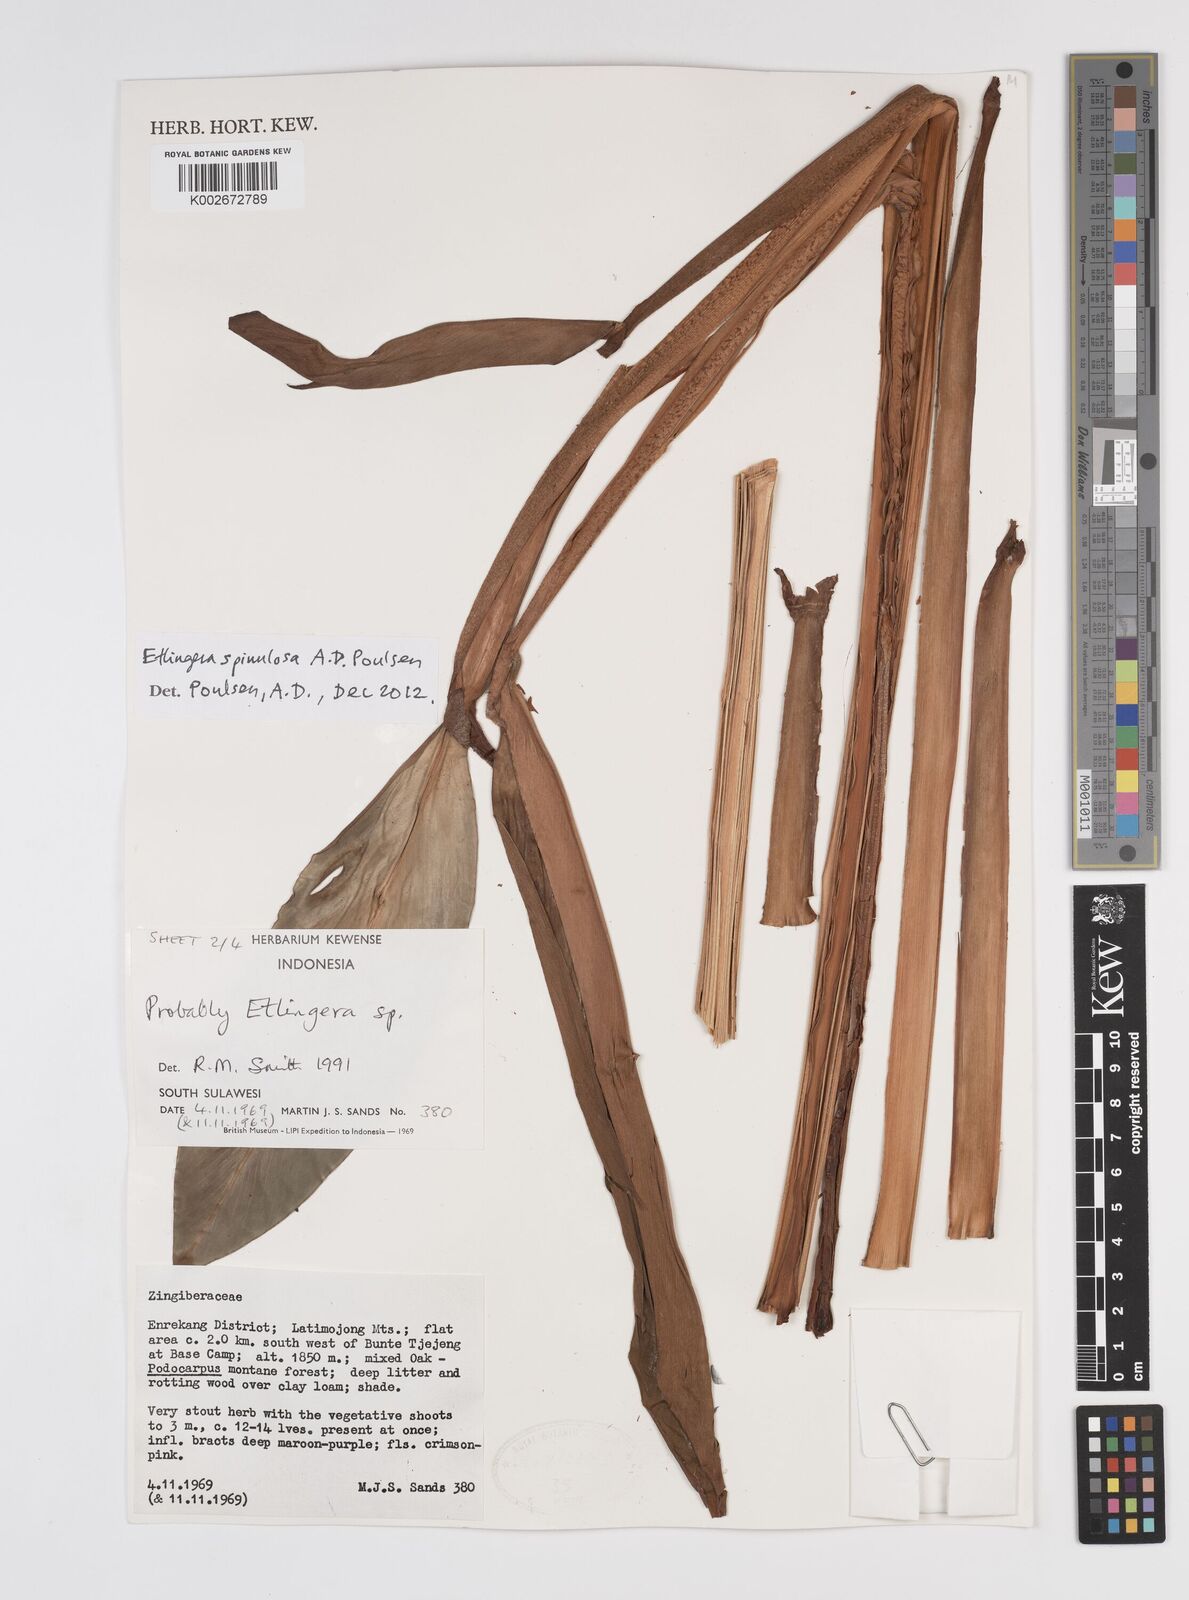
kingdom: Plantae
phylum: Tracheophyta
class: Liliopsida
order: Zingiberales
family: Zingiberaceae
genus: Etlingera
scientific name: Etlingera spinulosa
